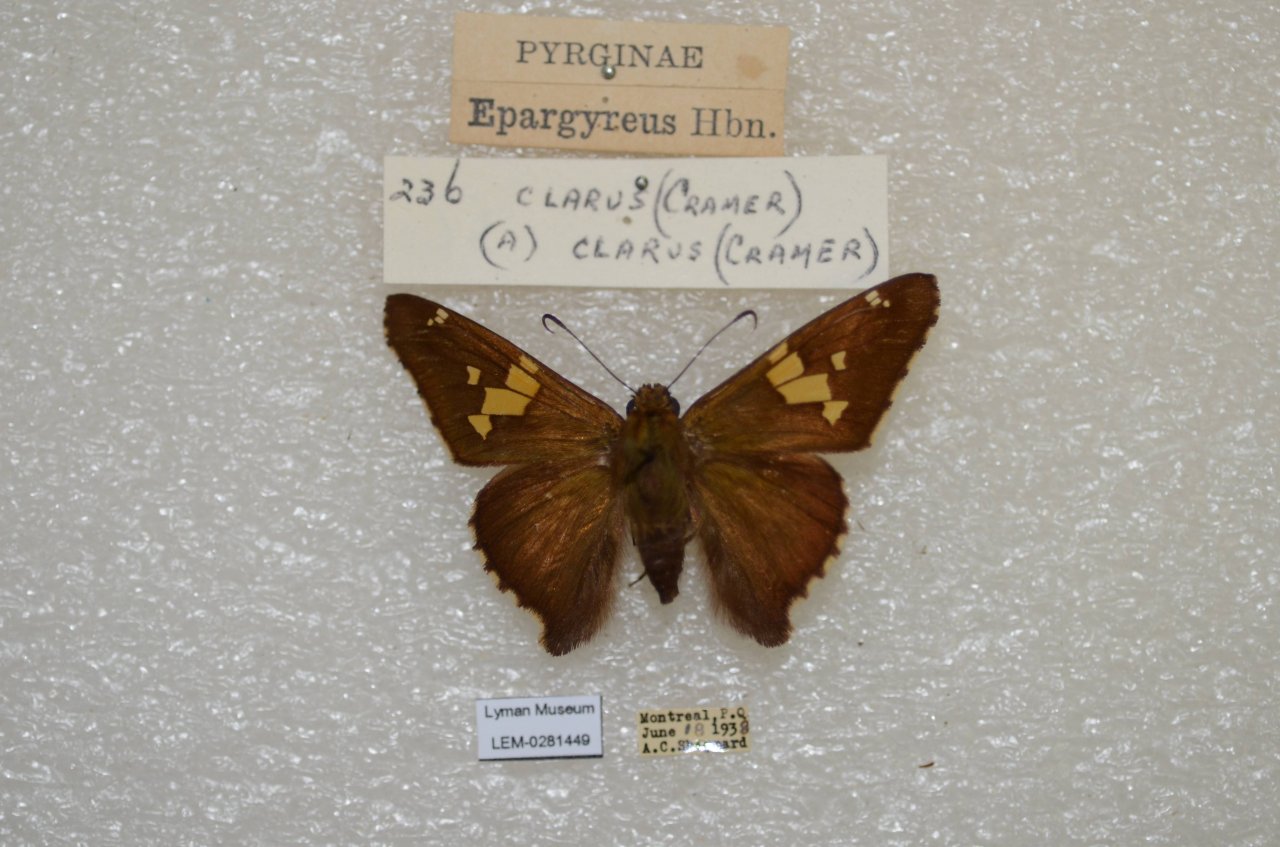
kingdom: Animalia
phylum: Arthropoda
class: Insecta
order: Lepidoptera
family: Hesperiidae
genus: Epargyreus
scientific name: Epargyreus clarus
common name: Silver-spotted Skipper
